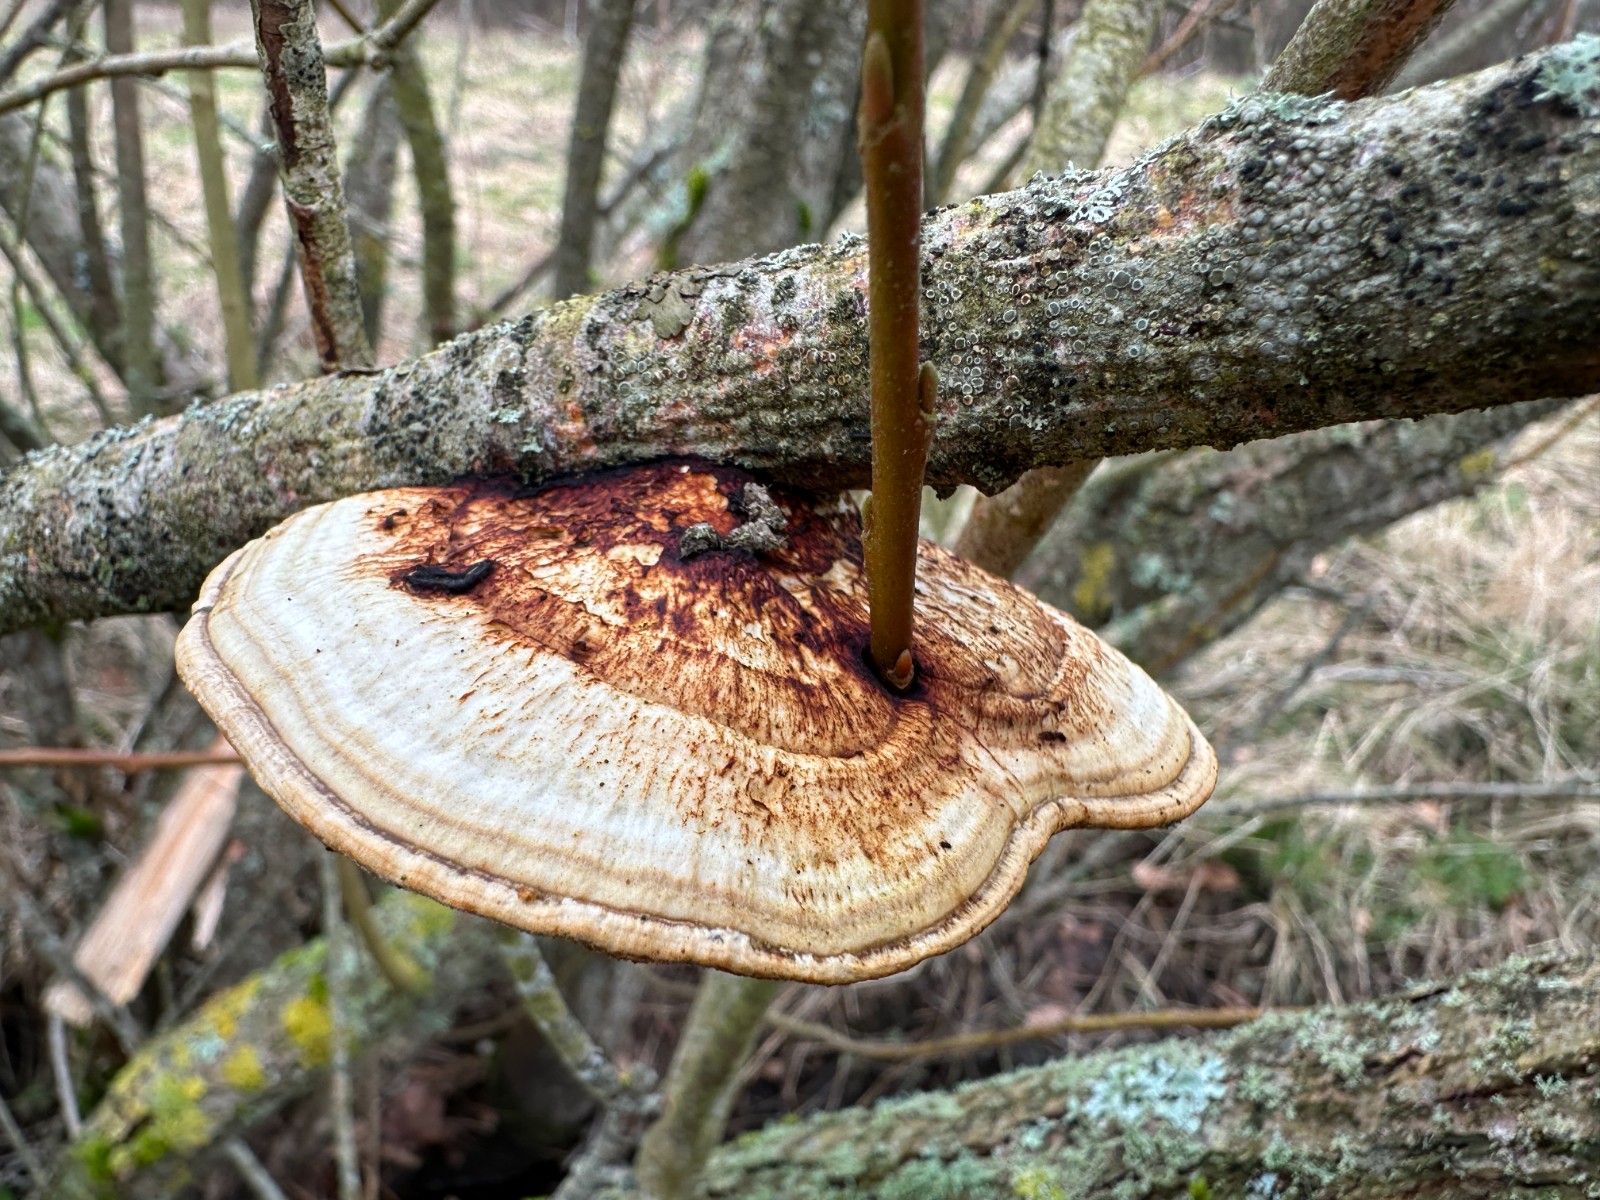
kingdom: Fungi
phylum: Basidiomycota
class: Agaricomycetes
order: Polyporales
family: Polyporaceae
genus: Daedaleopsis
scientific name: Daedaleopsis confragosa
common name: rødmende læderporesvamp
